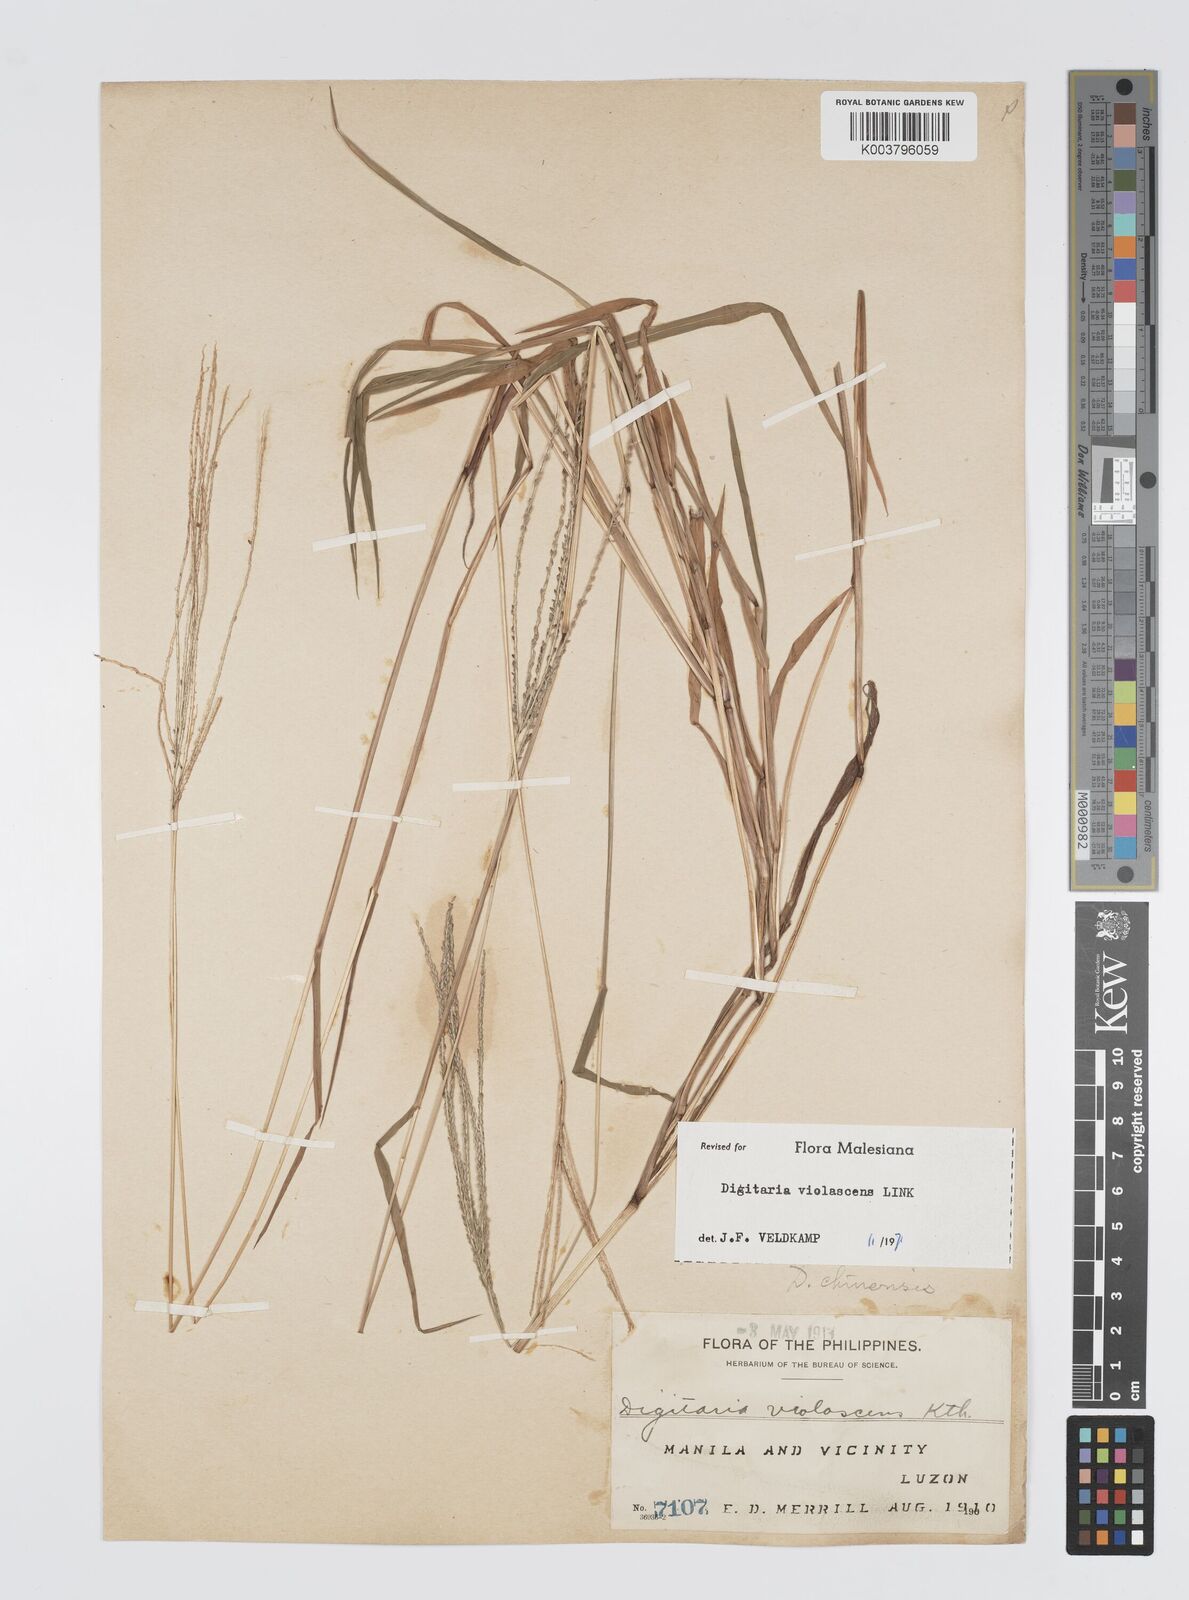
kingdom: Plantae
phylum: Tracheophyta
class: Liliopsida
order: Poales
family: Poaceae
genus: Digitaria
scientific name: Digitaria violascens
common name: Violet crabgrass
